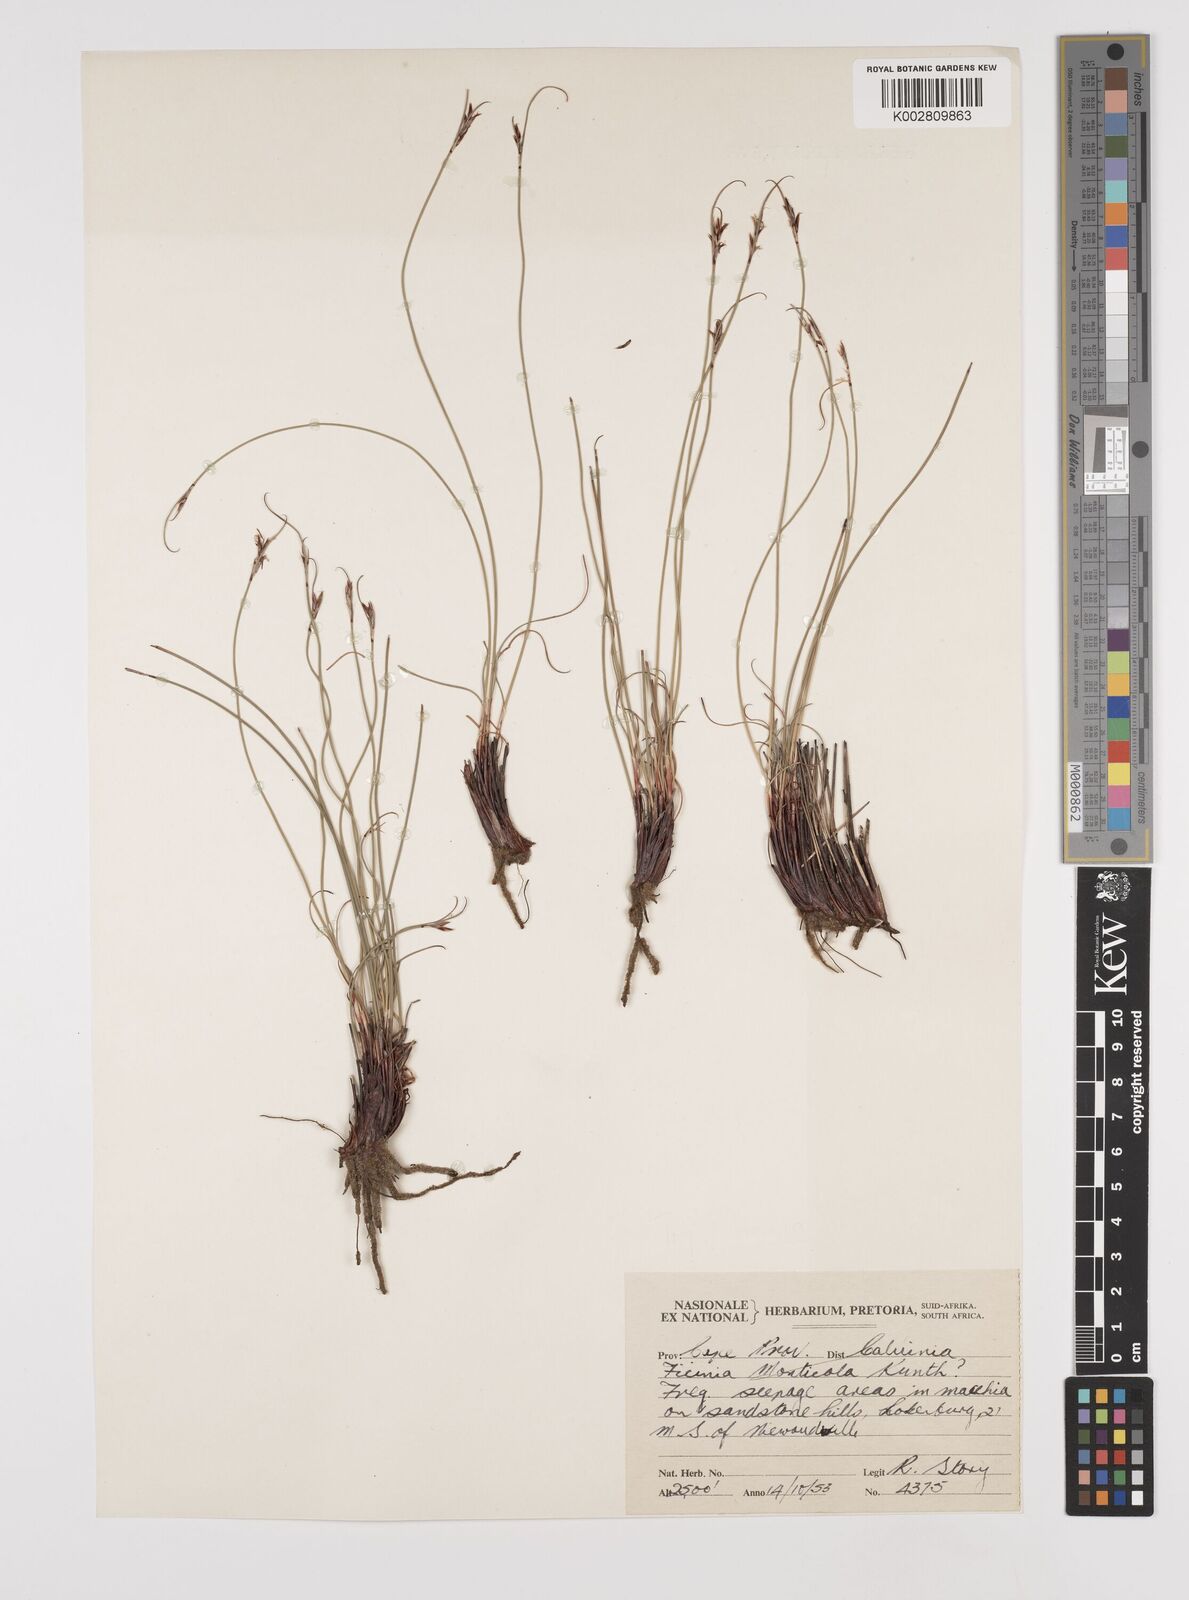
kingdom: Plantae
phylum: Tracheophyta
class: Liliopsida
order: Poales
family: Cyperaceae
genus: Schoenus
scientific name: Schoenus
